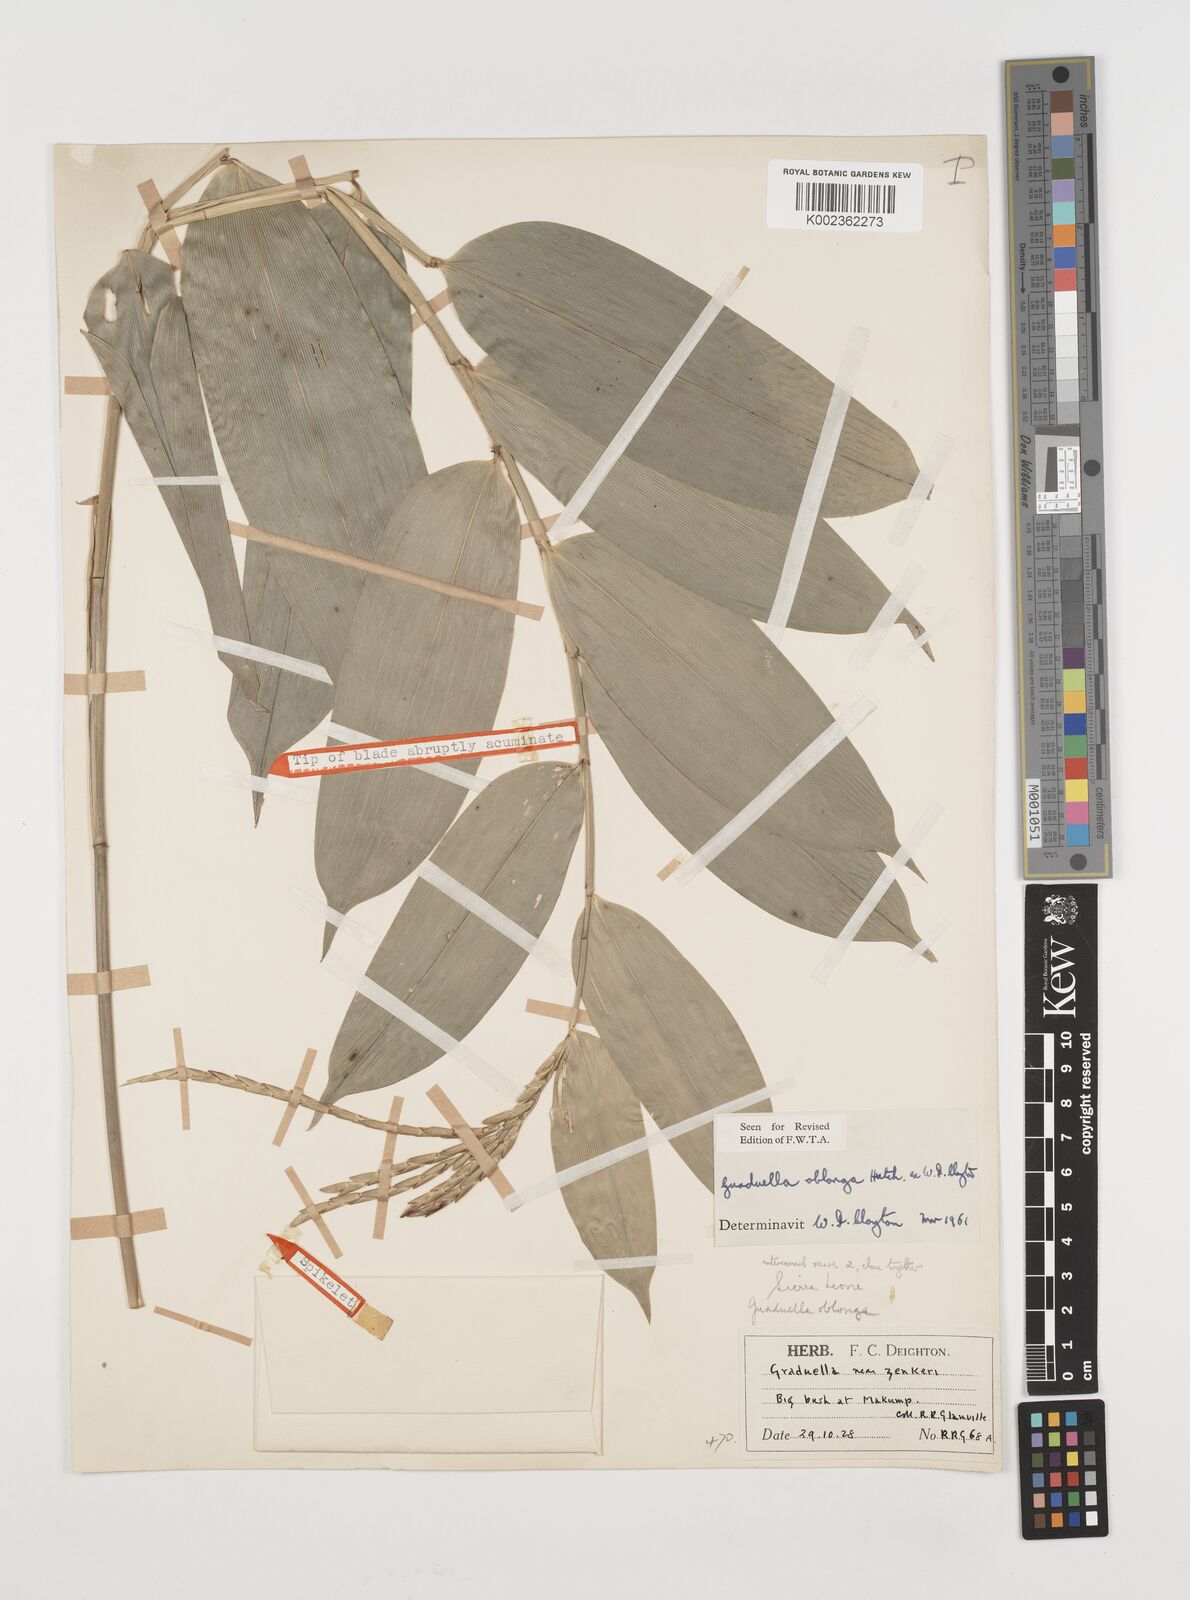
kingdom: Plantae
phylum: Tracheophyta
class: Liliopsida
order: Poales
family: Poaceae
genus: Guaduella
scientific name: Guaduella oblonga
